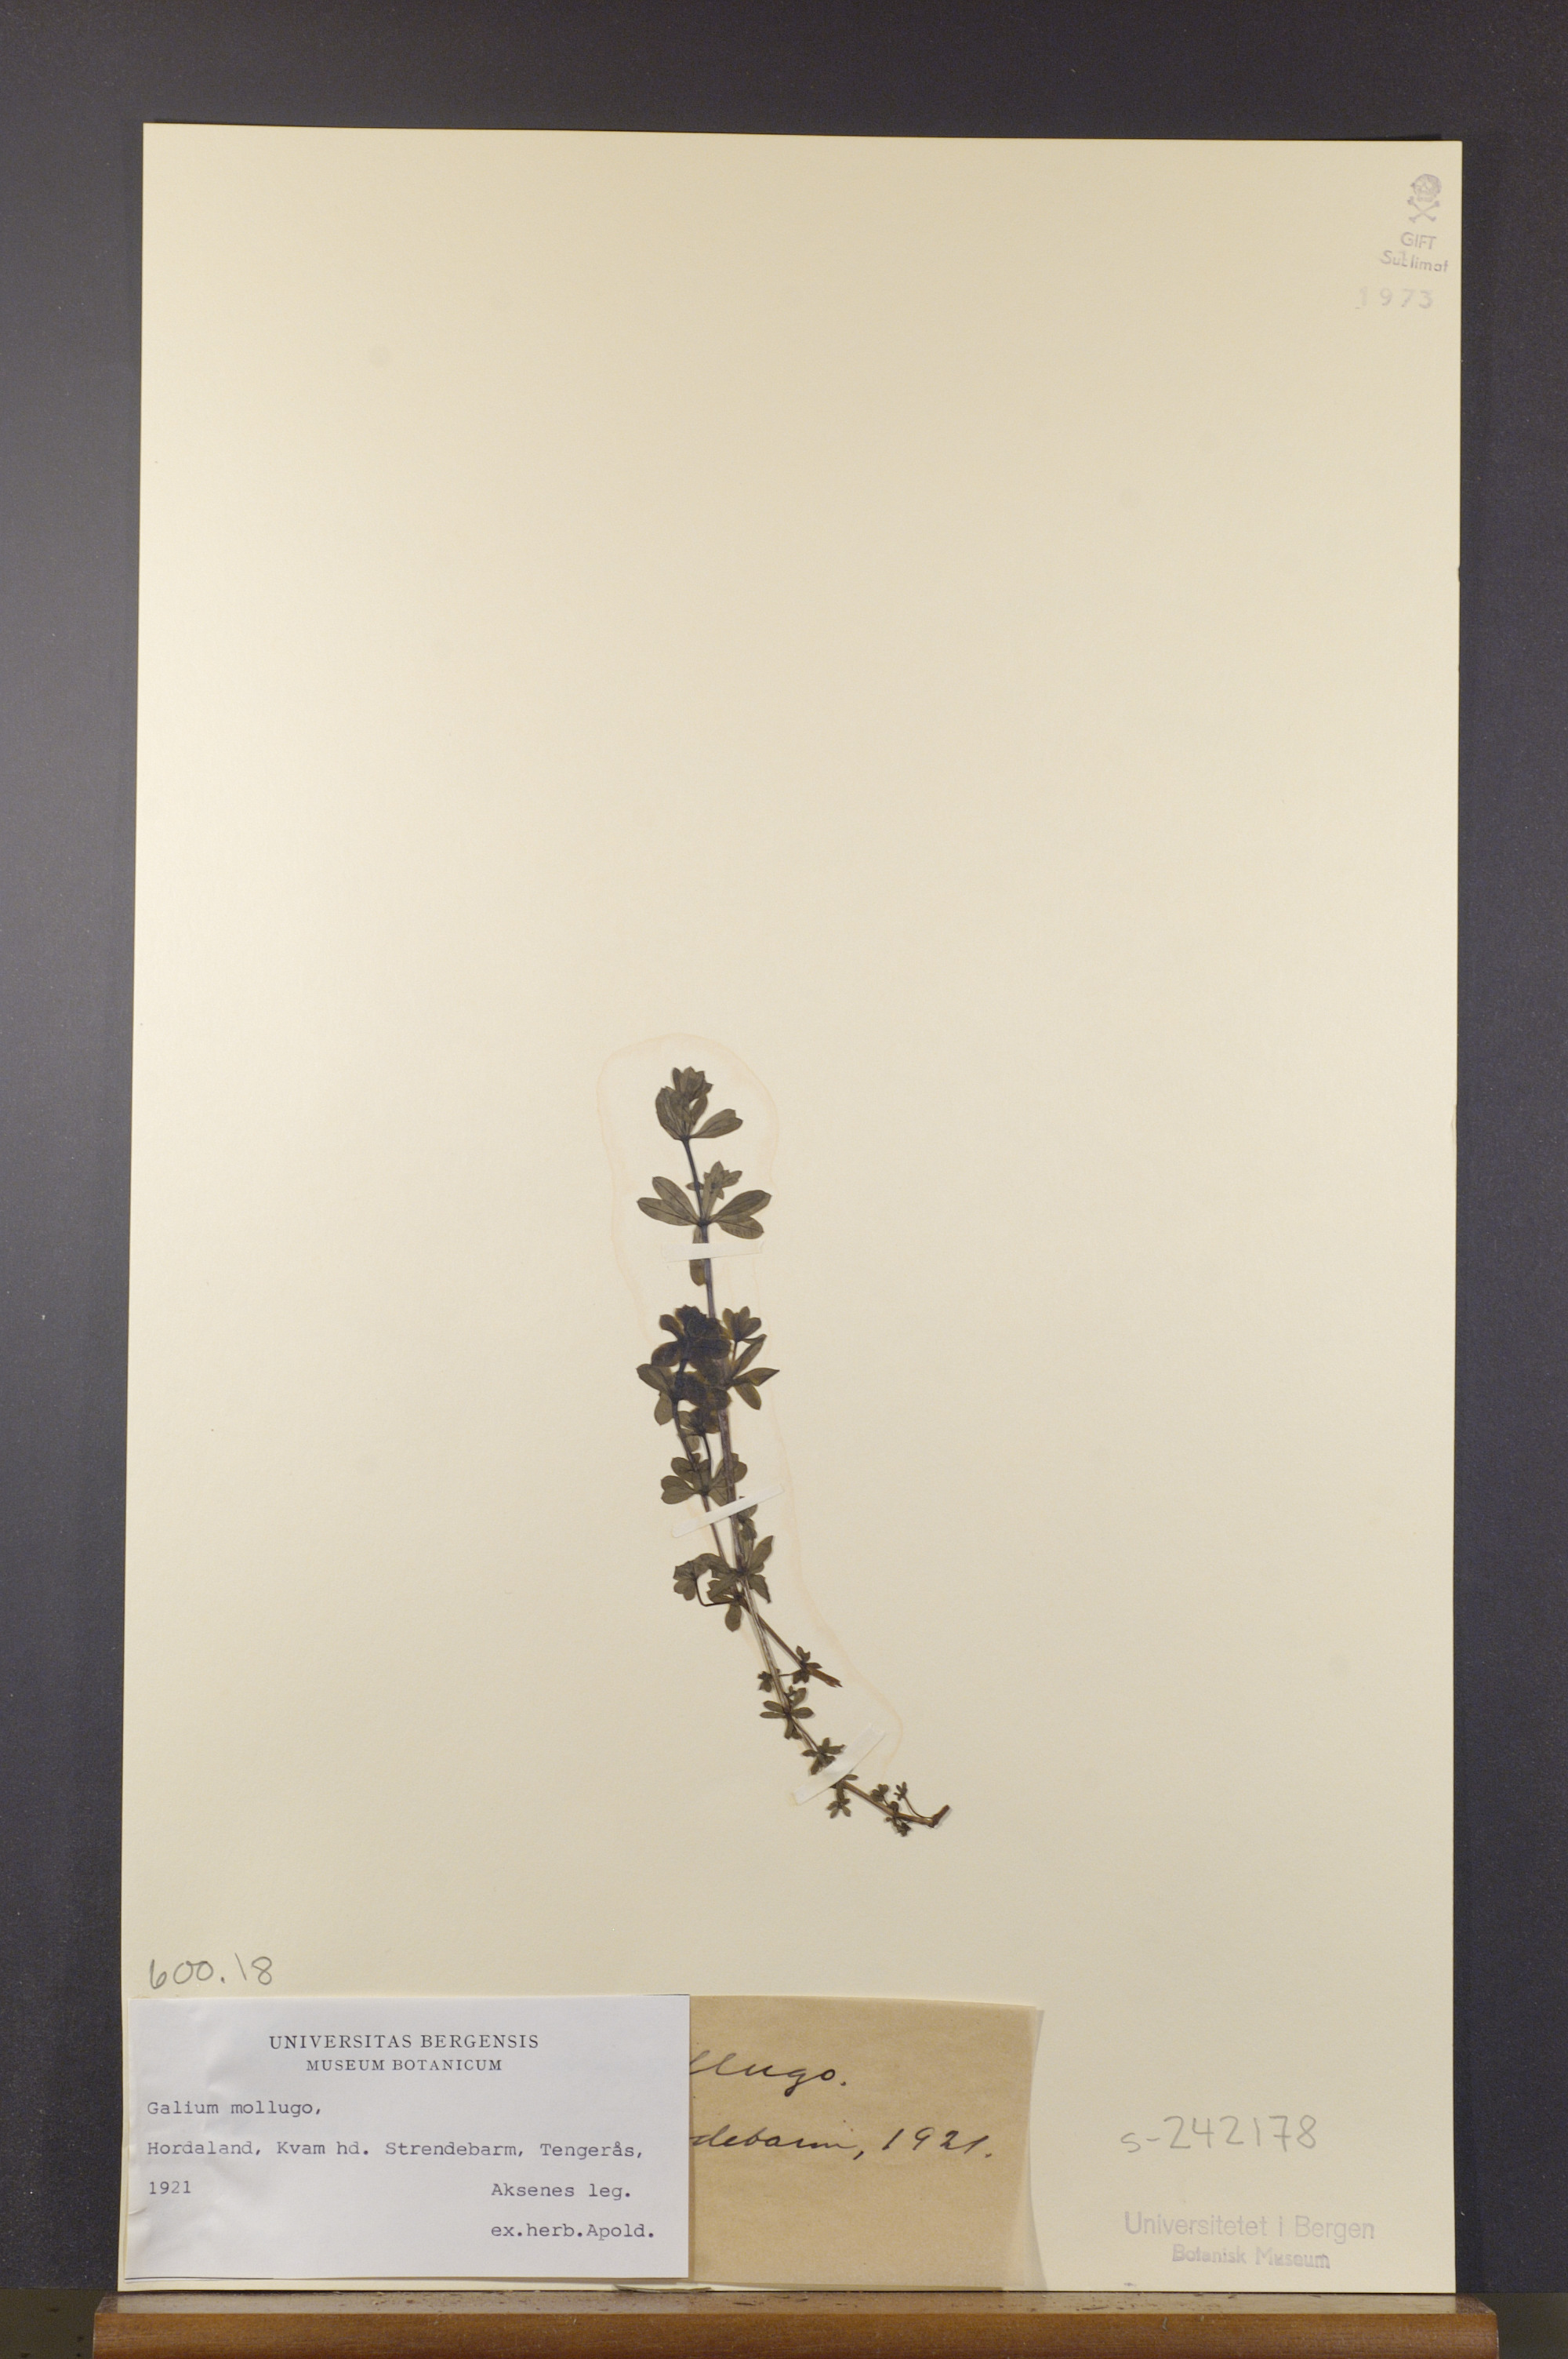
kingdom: Plantae
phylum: Tracheophyta
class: Magnoliopsida
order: Gentianales
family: Rubiaceae
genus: Galium
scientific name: Galium mollugo
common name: Hedge bedstraw
